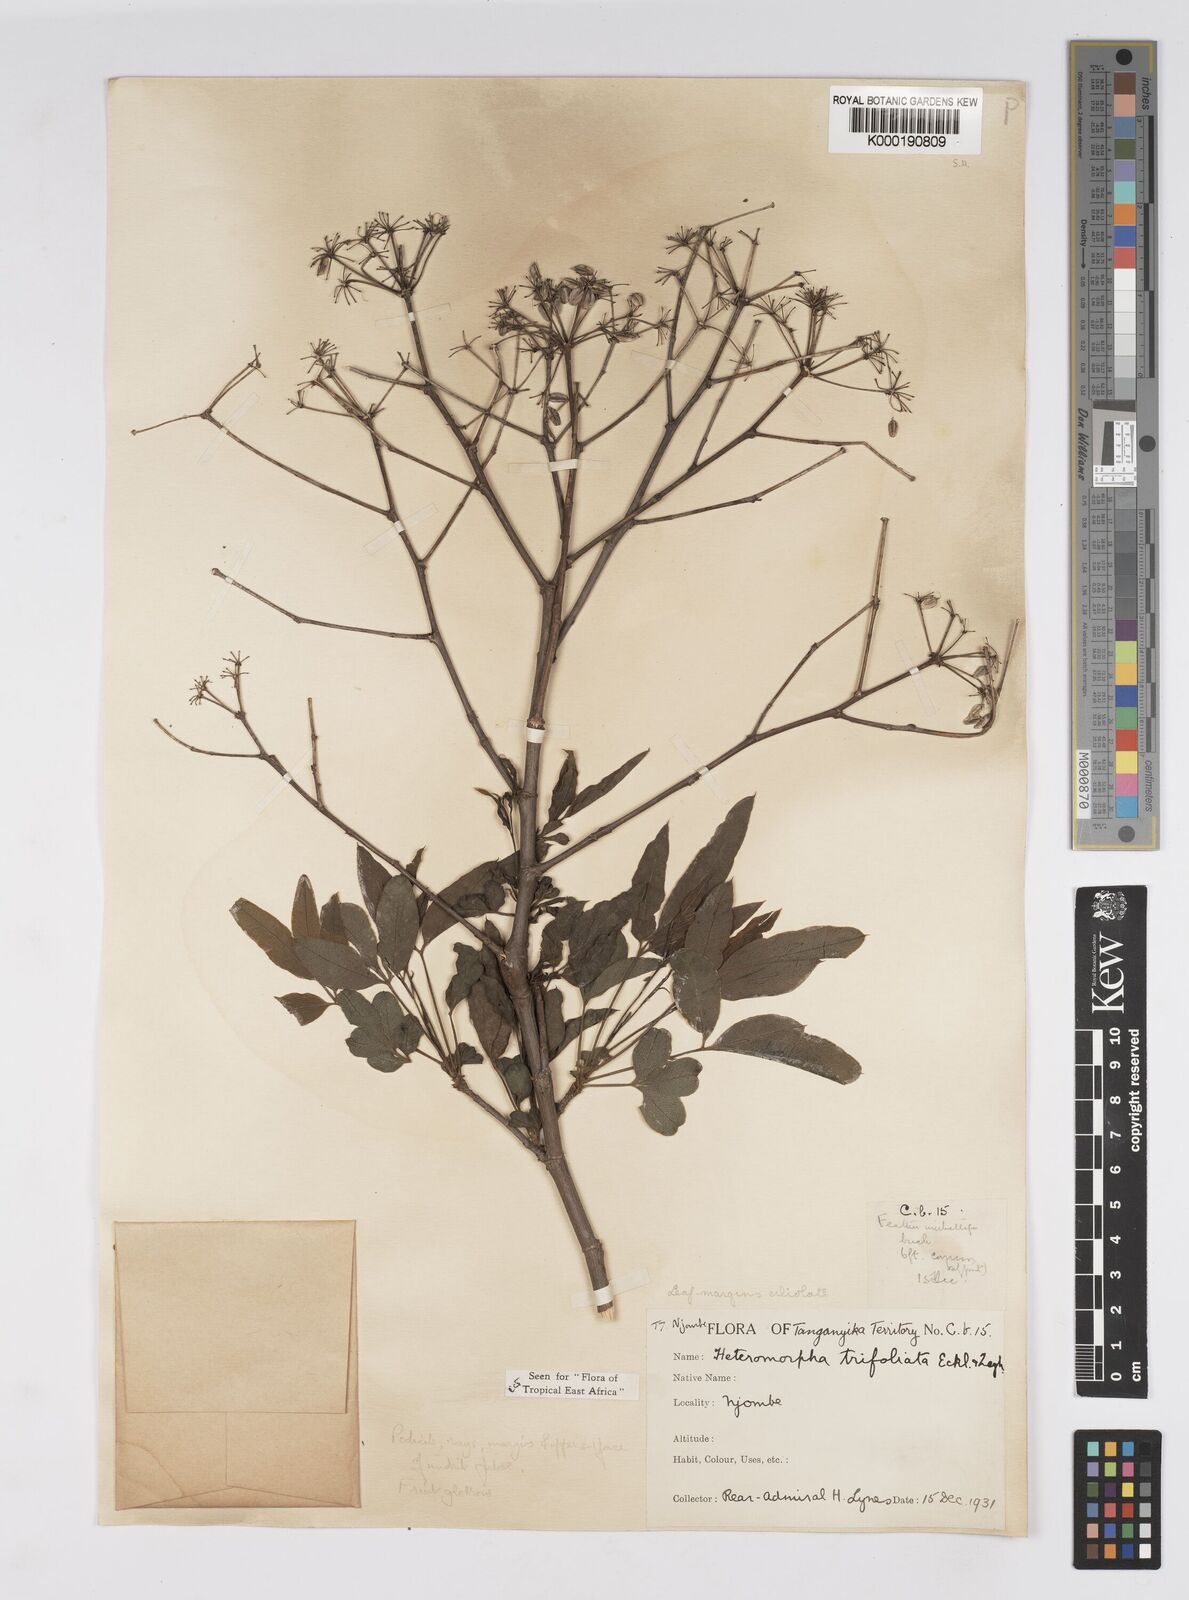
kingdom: Plantae
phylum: Tracheophyta
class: Magnoliopsida
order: Apiales
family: Apiaceae
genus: Heteromorpha
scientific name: Heteromorpha arborescens
